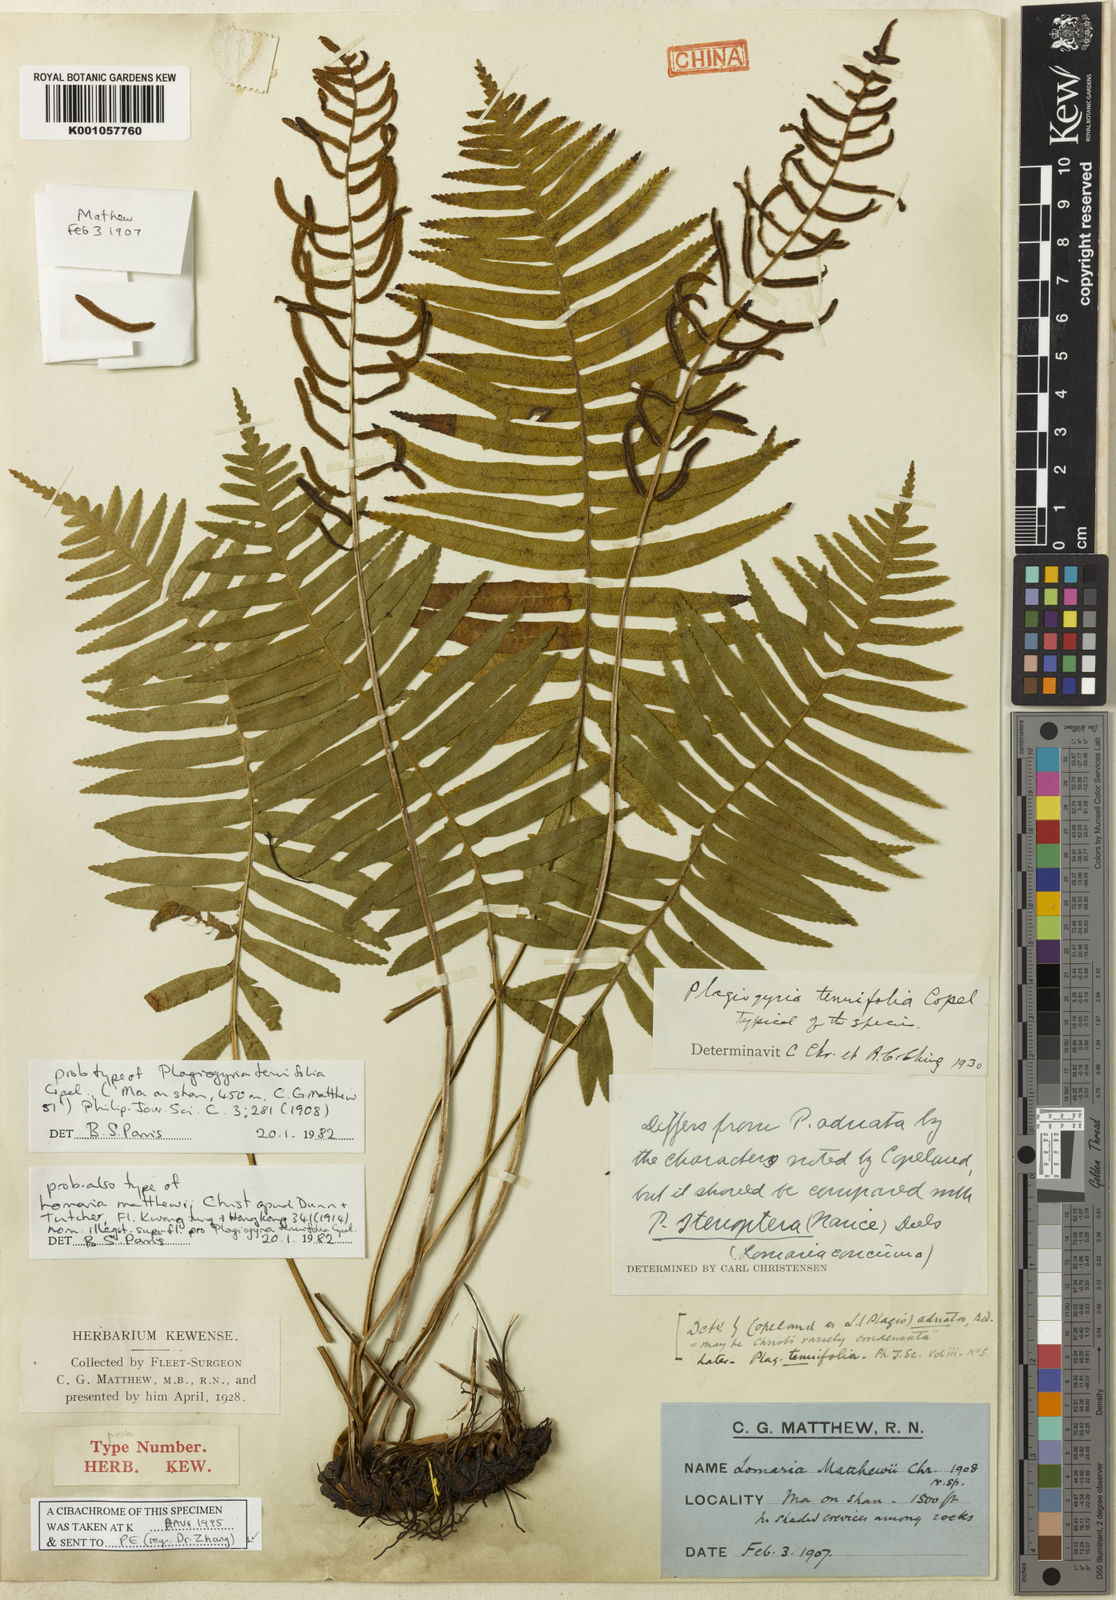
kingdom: Plantae
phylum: Tracheophyta
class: Polypodiopsida
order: Cyatheales
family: Plagiogyriaceae
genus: Plagiogyria
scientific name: Plagiogyria stenoptera
